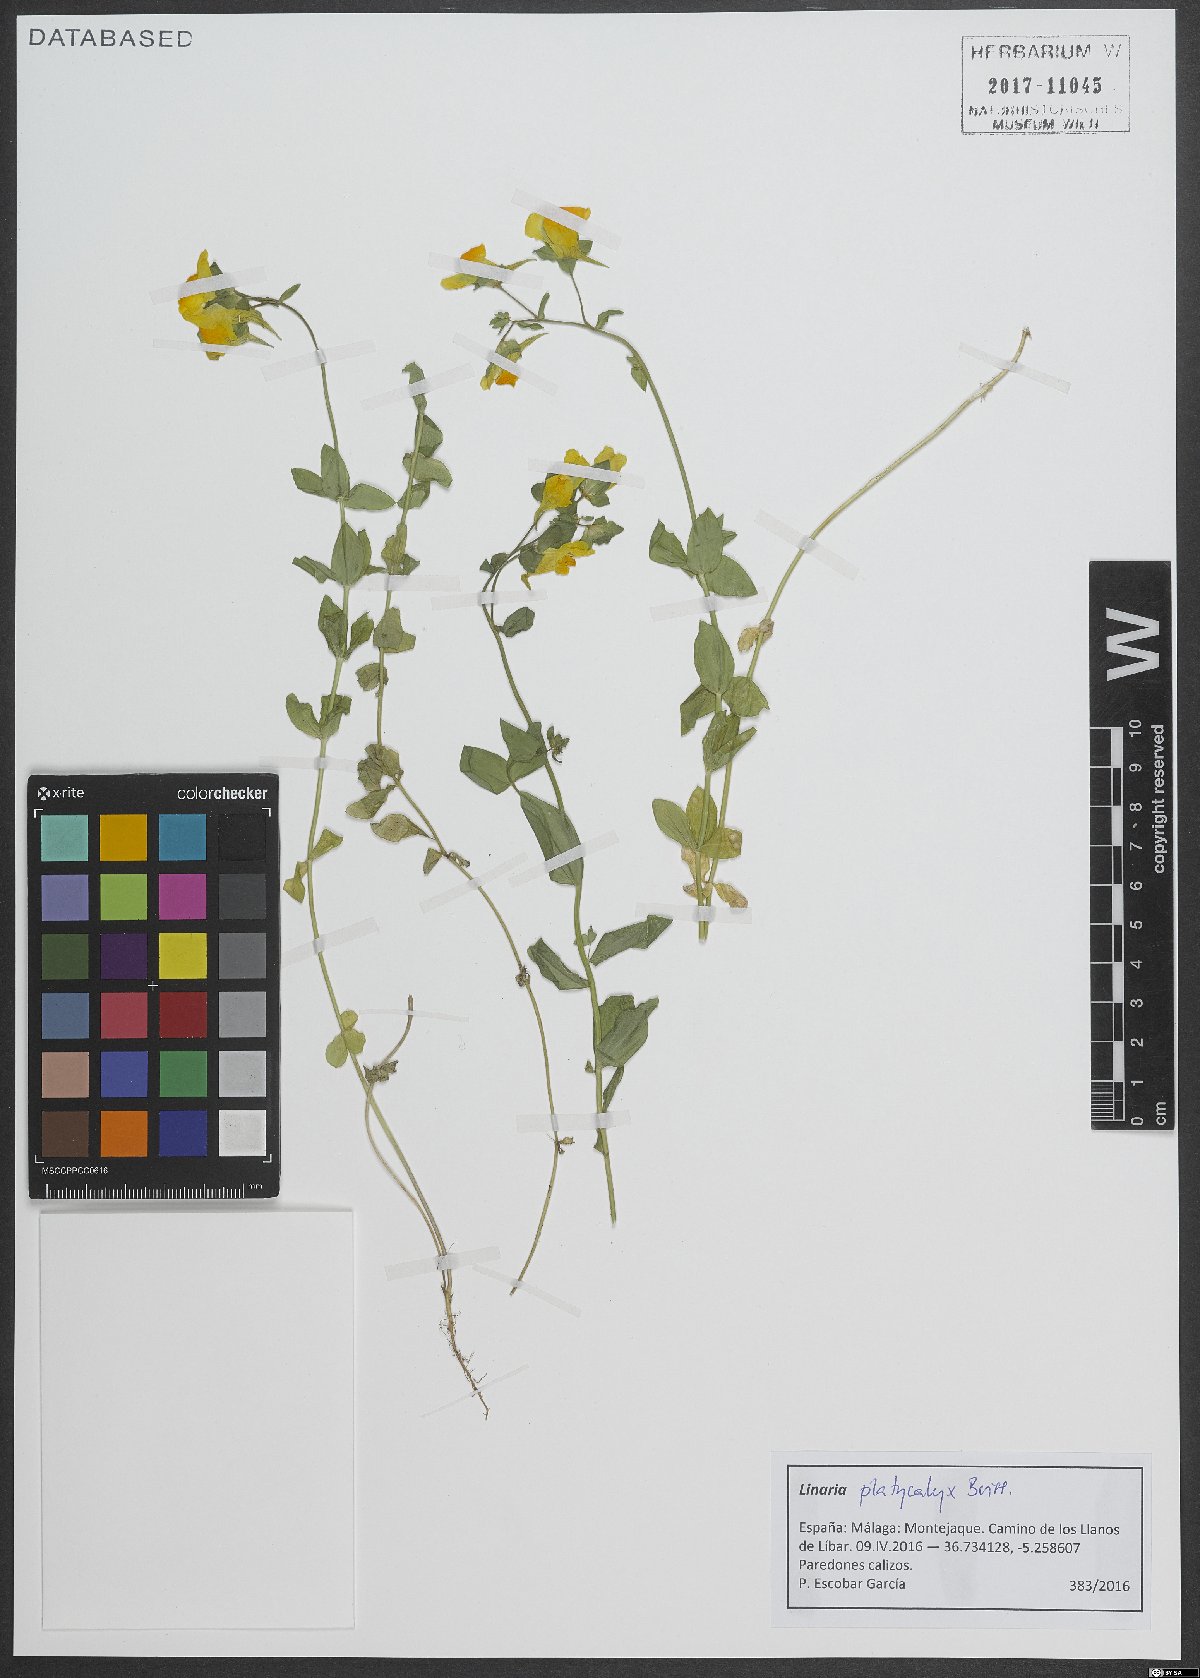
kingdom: Plantae
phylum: Tracheophyta
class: Magnoliopsida
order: Lamiales
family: Plantaginaceae
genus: Linaria
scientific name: Linaria platycalyx
